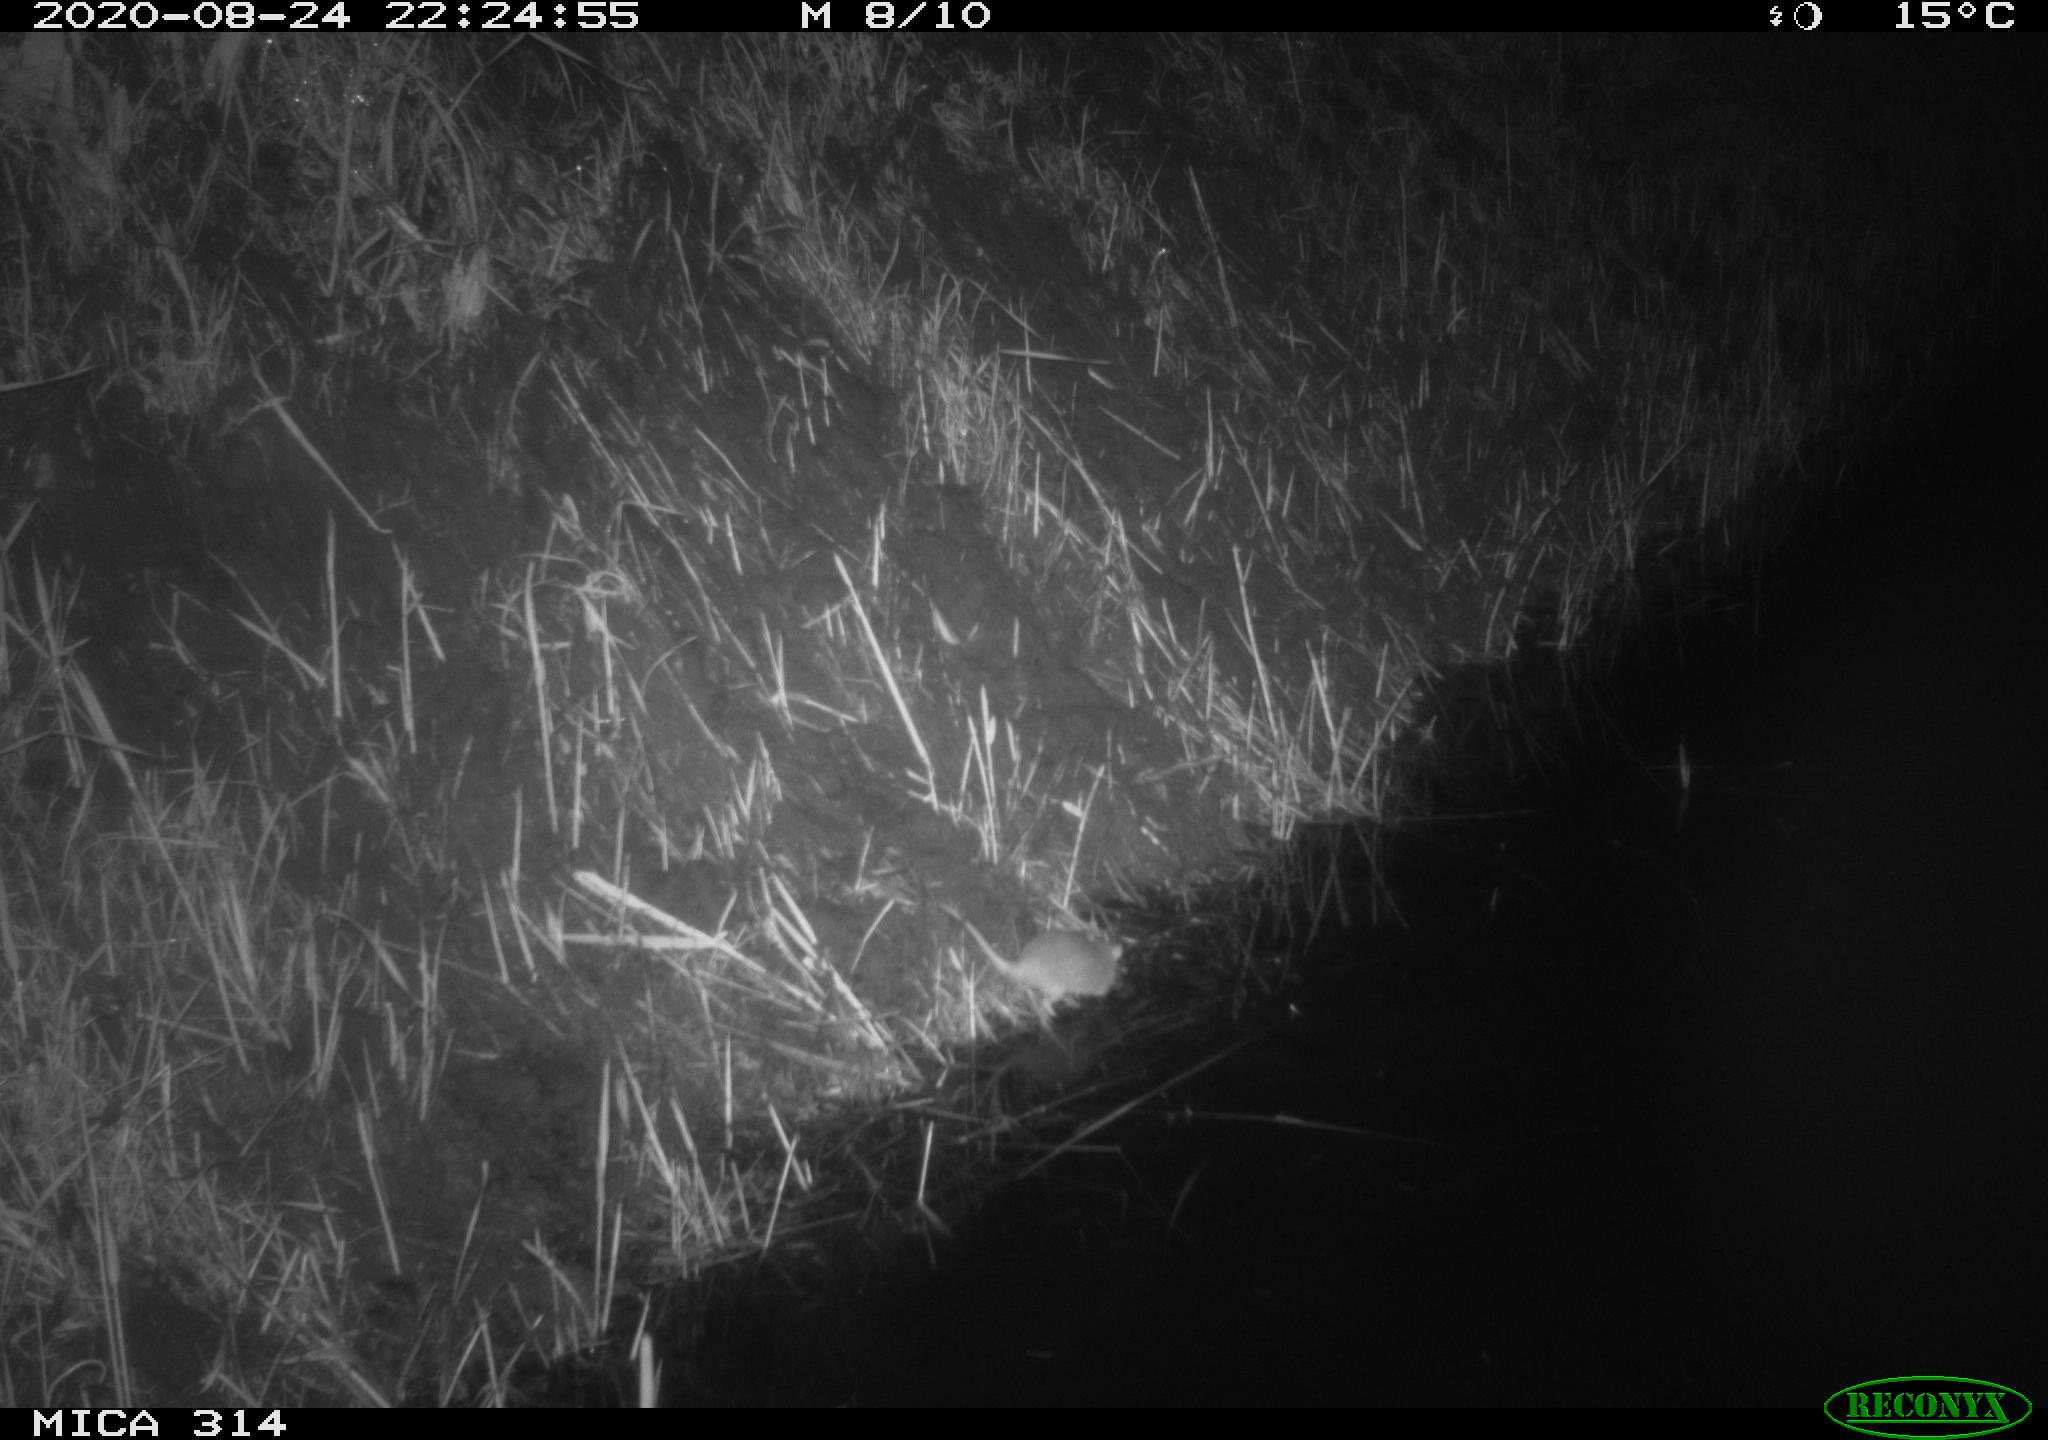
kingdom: Animalia
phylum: Chordata
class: Mammalia
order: Rodentia
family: Muridae
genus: Rattus
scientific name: Rattus norvegicus
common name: Brown rat
